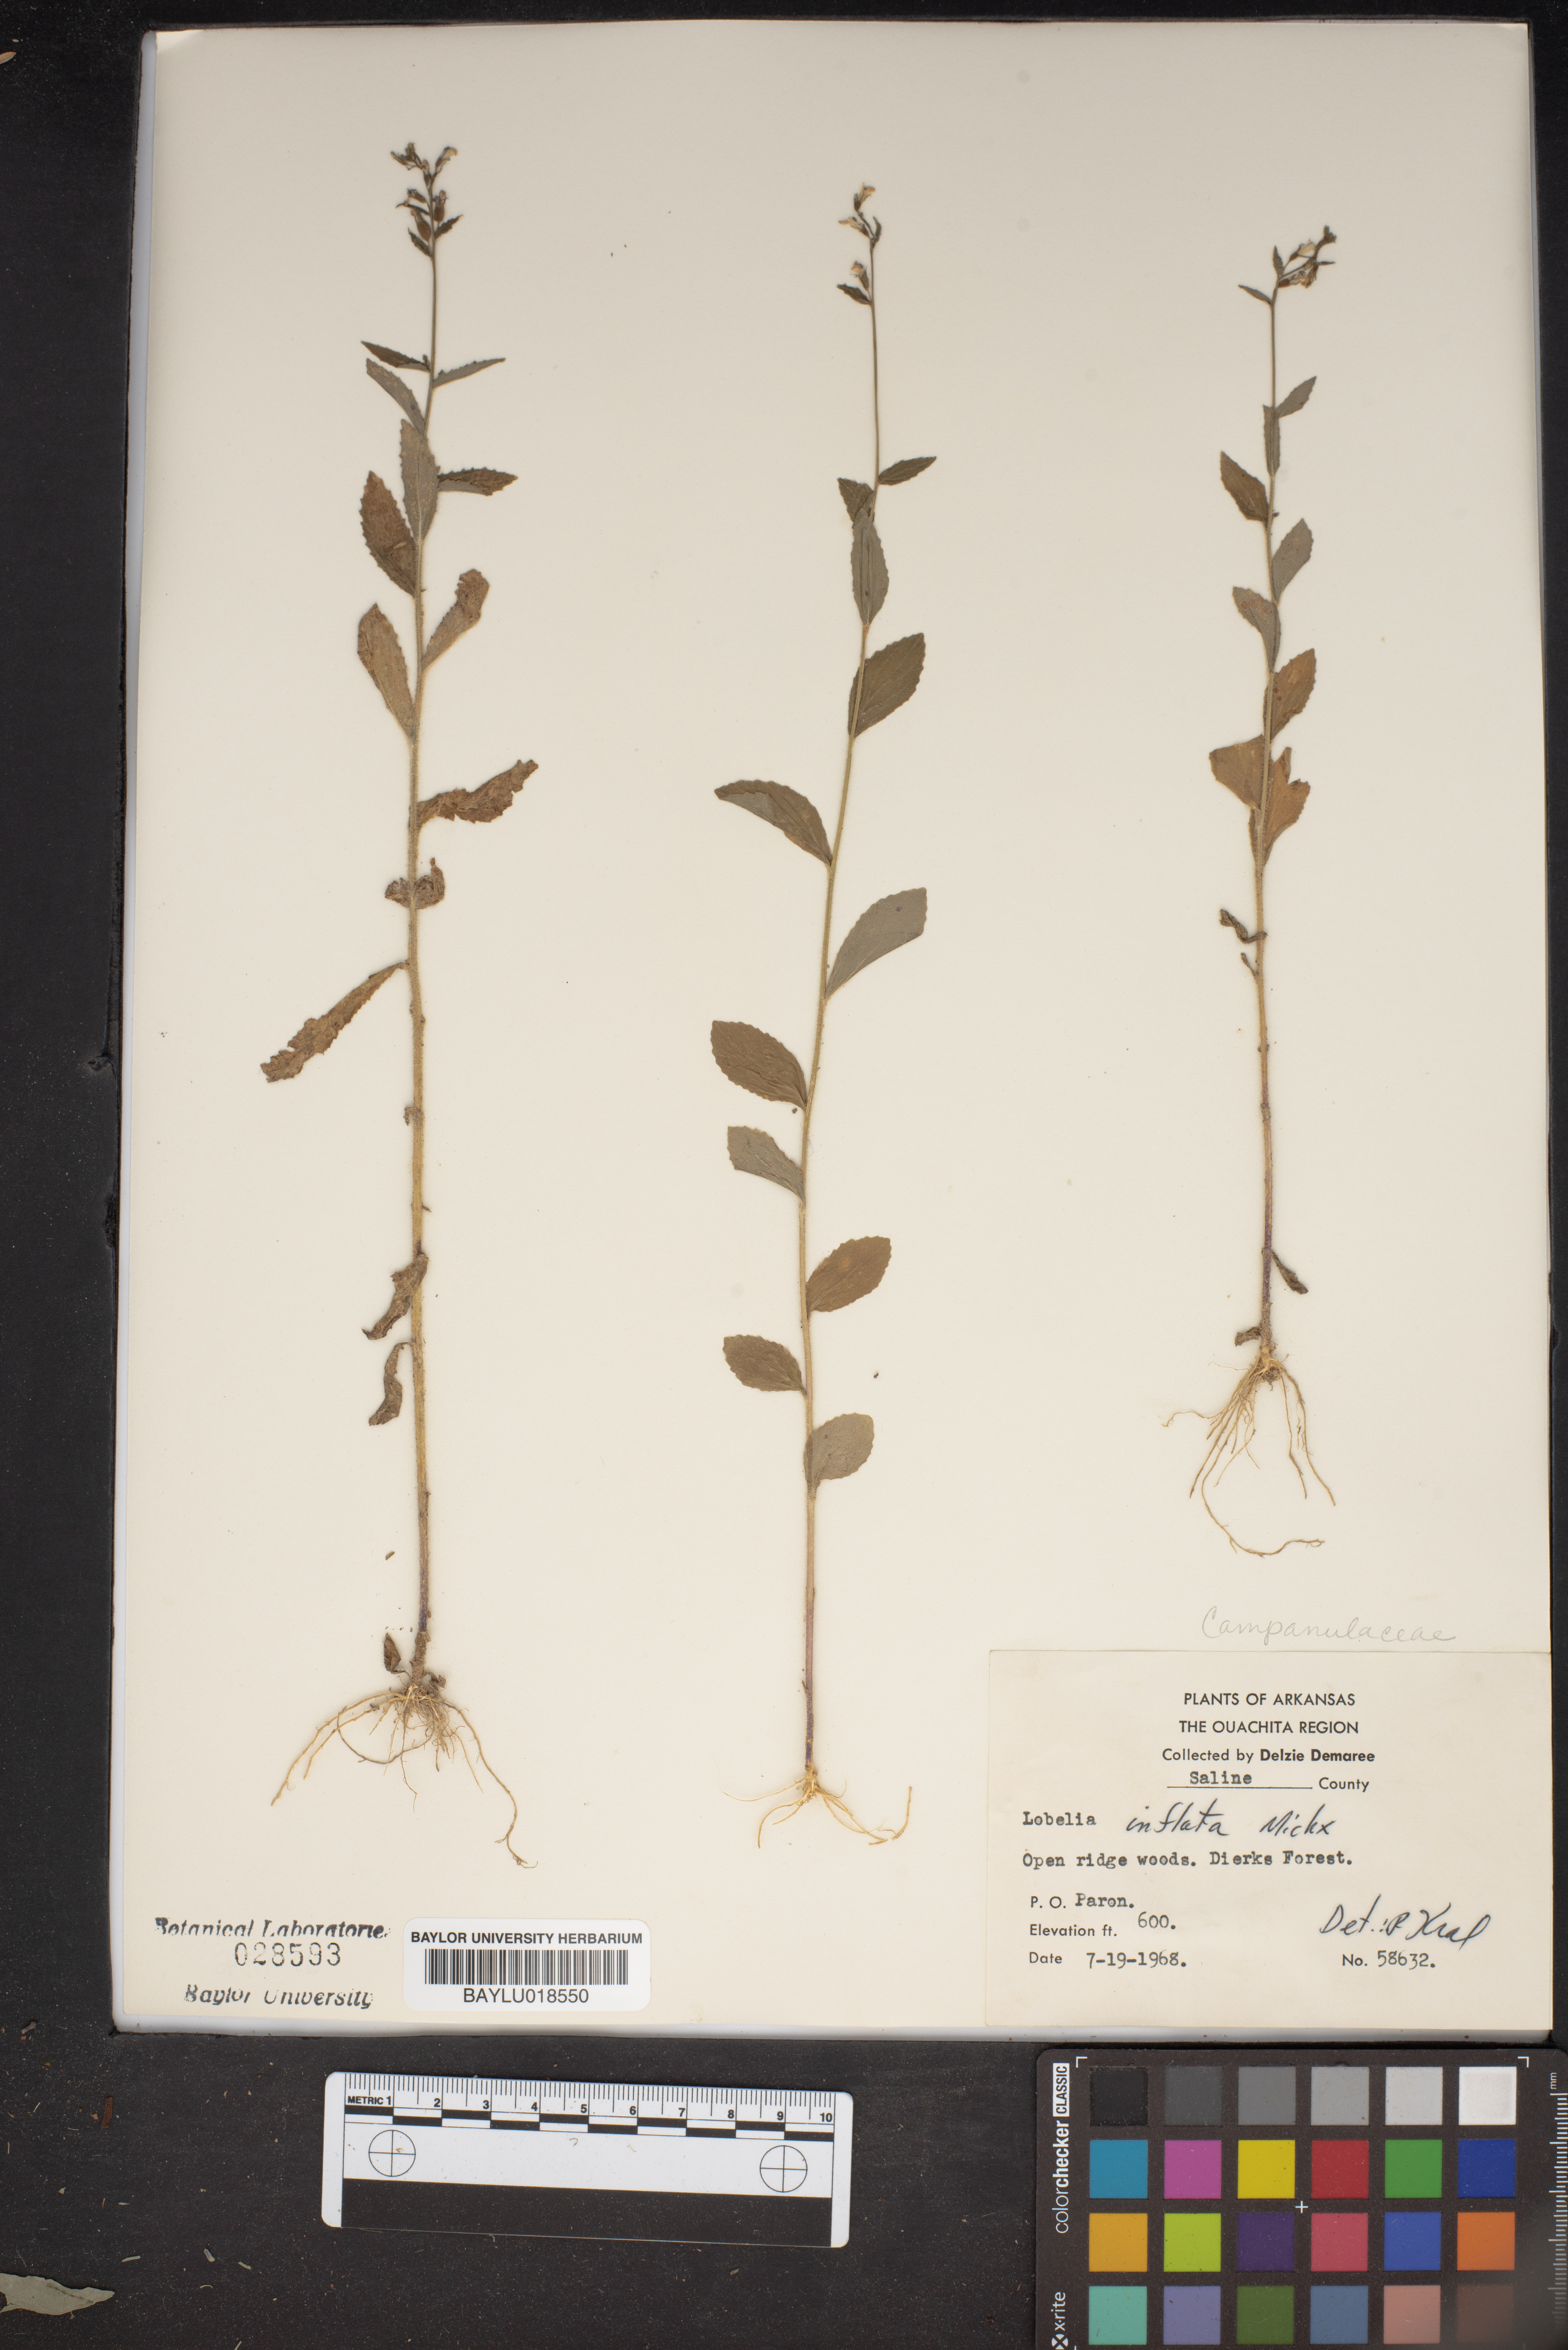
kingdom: Plantae
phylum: Tracheophyta
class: Magnoliopsida
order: Asterales
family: Campanulaceae
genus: Lobelia
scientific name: Lobelia inflata
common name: Indian tobacco
